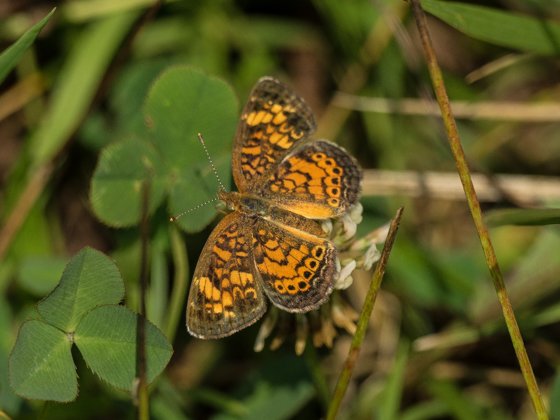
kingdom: Animalia
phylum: Arthropoda
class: Insecta
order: Lepidoptera
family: Nymphalidae
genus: Phyciodes
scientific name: Phyciodes tharos
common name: Pearl Crescent
